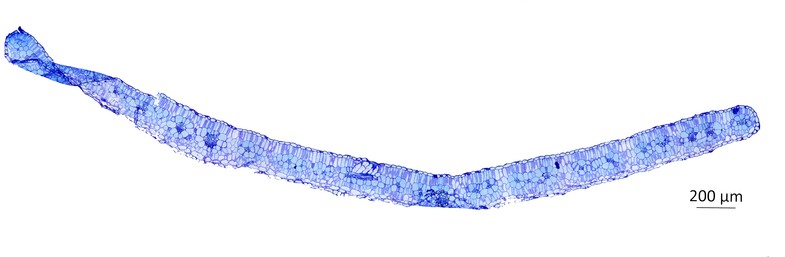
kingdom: Plantae
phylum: Tracheophyta
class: Magnoliopsida
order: Zygophyllales
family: Zygophyllaceae
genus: Kallstroemia
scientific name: Kallstroemia adscendens
